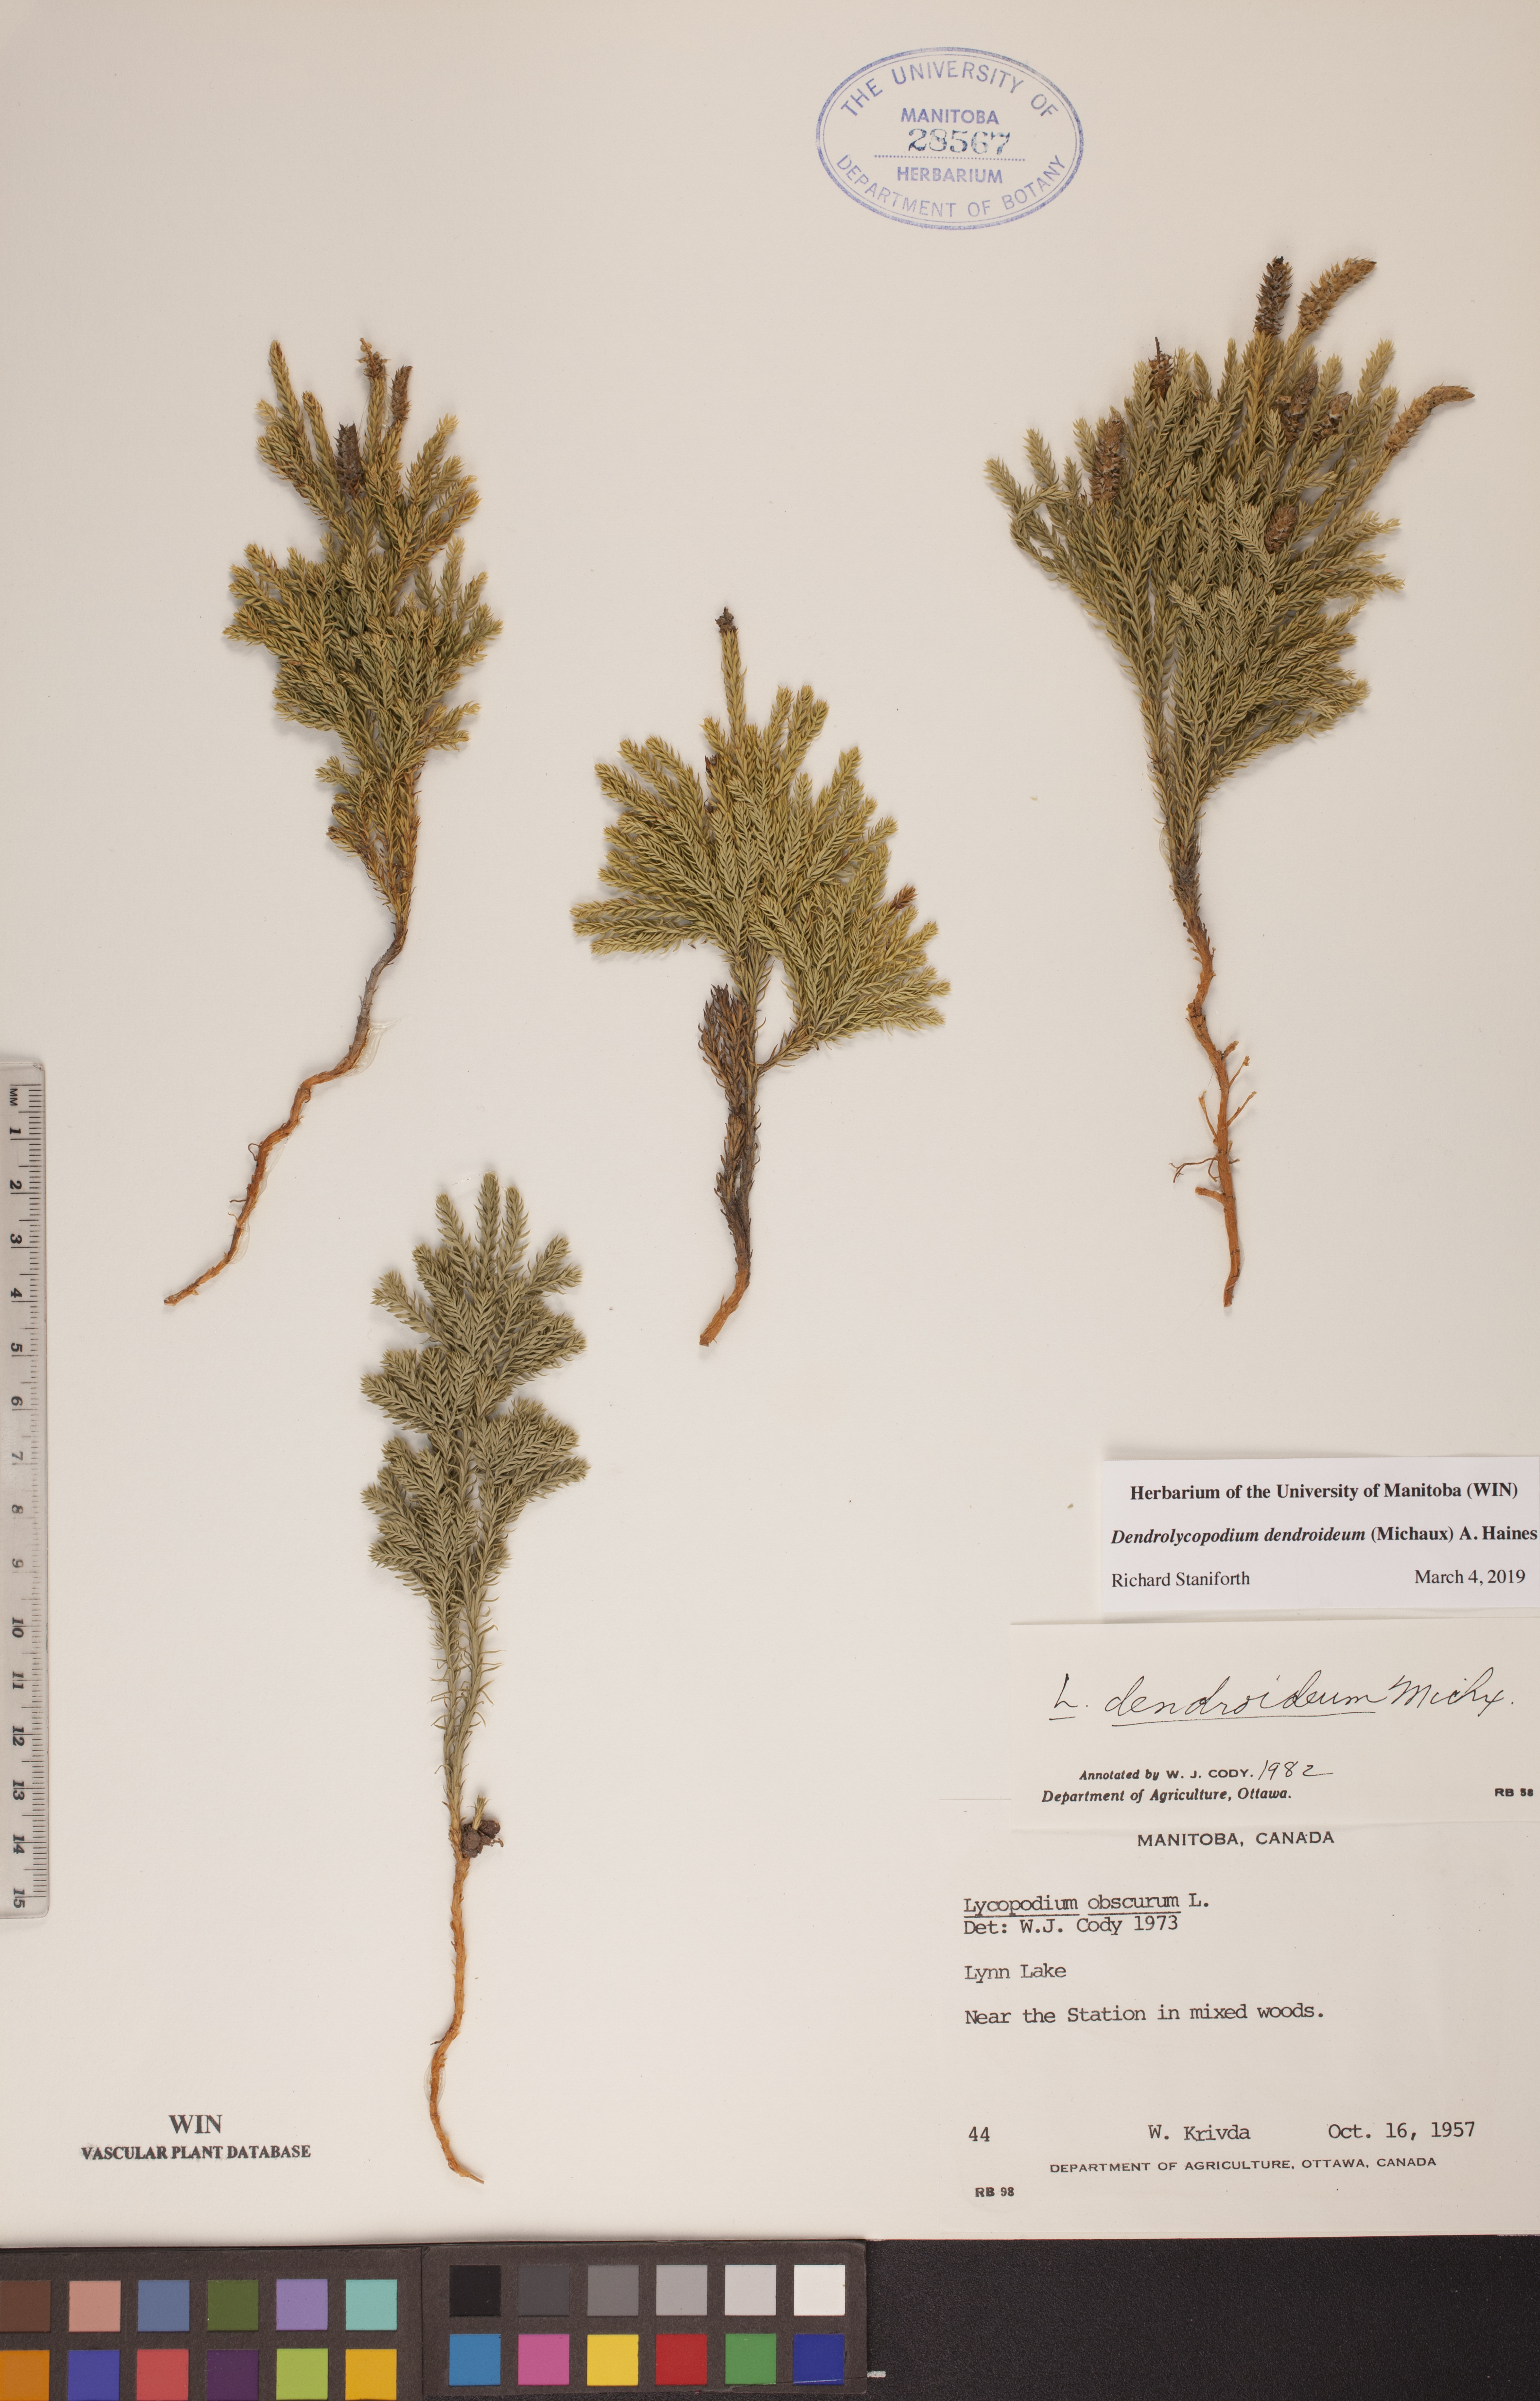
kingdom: Plantae
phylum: Tracheophyta
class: Lycopodiopsida
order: Lycopodiales
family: Lycopodiaceae
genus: Dendrolycopodium
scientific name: Dendrolycopodium dendroideum
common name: Northern tree-clubmoss
